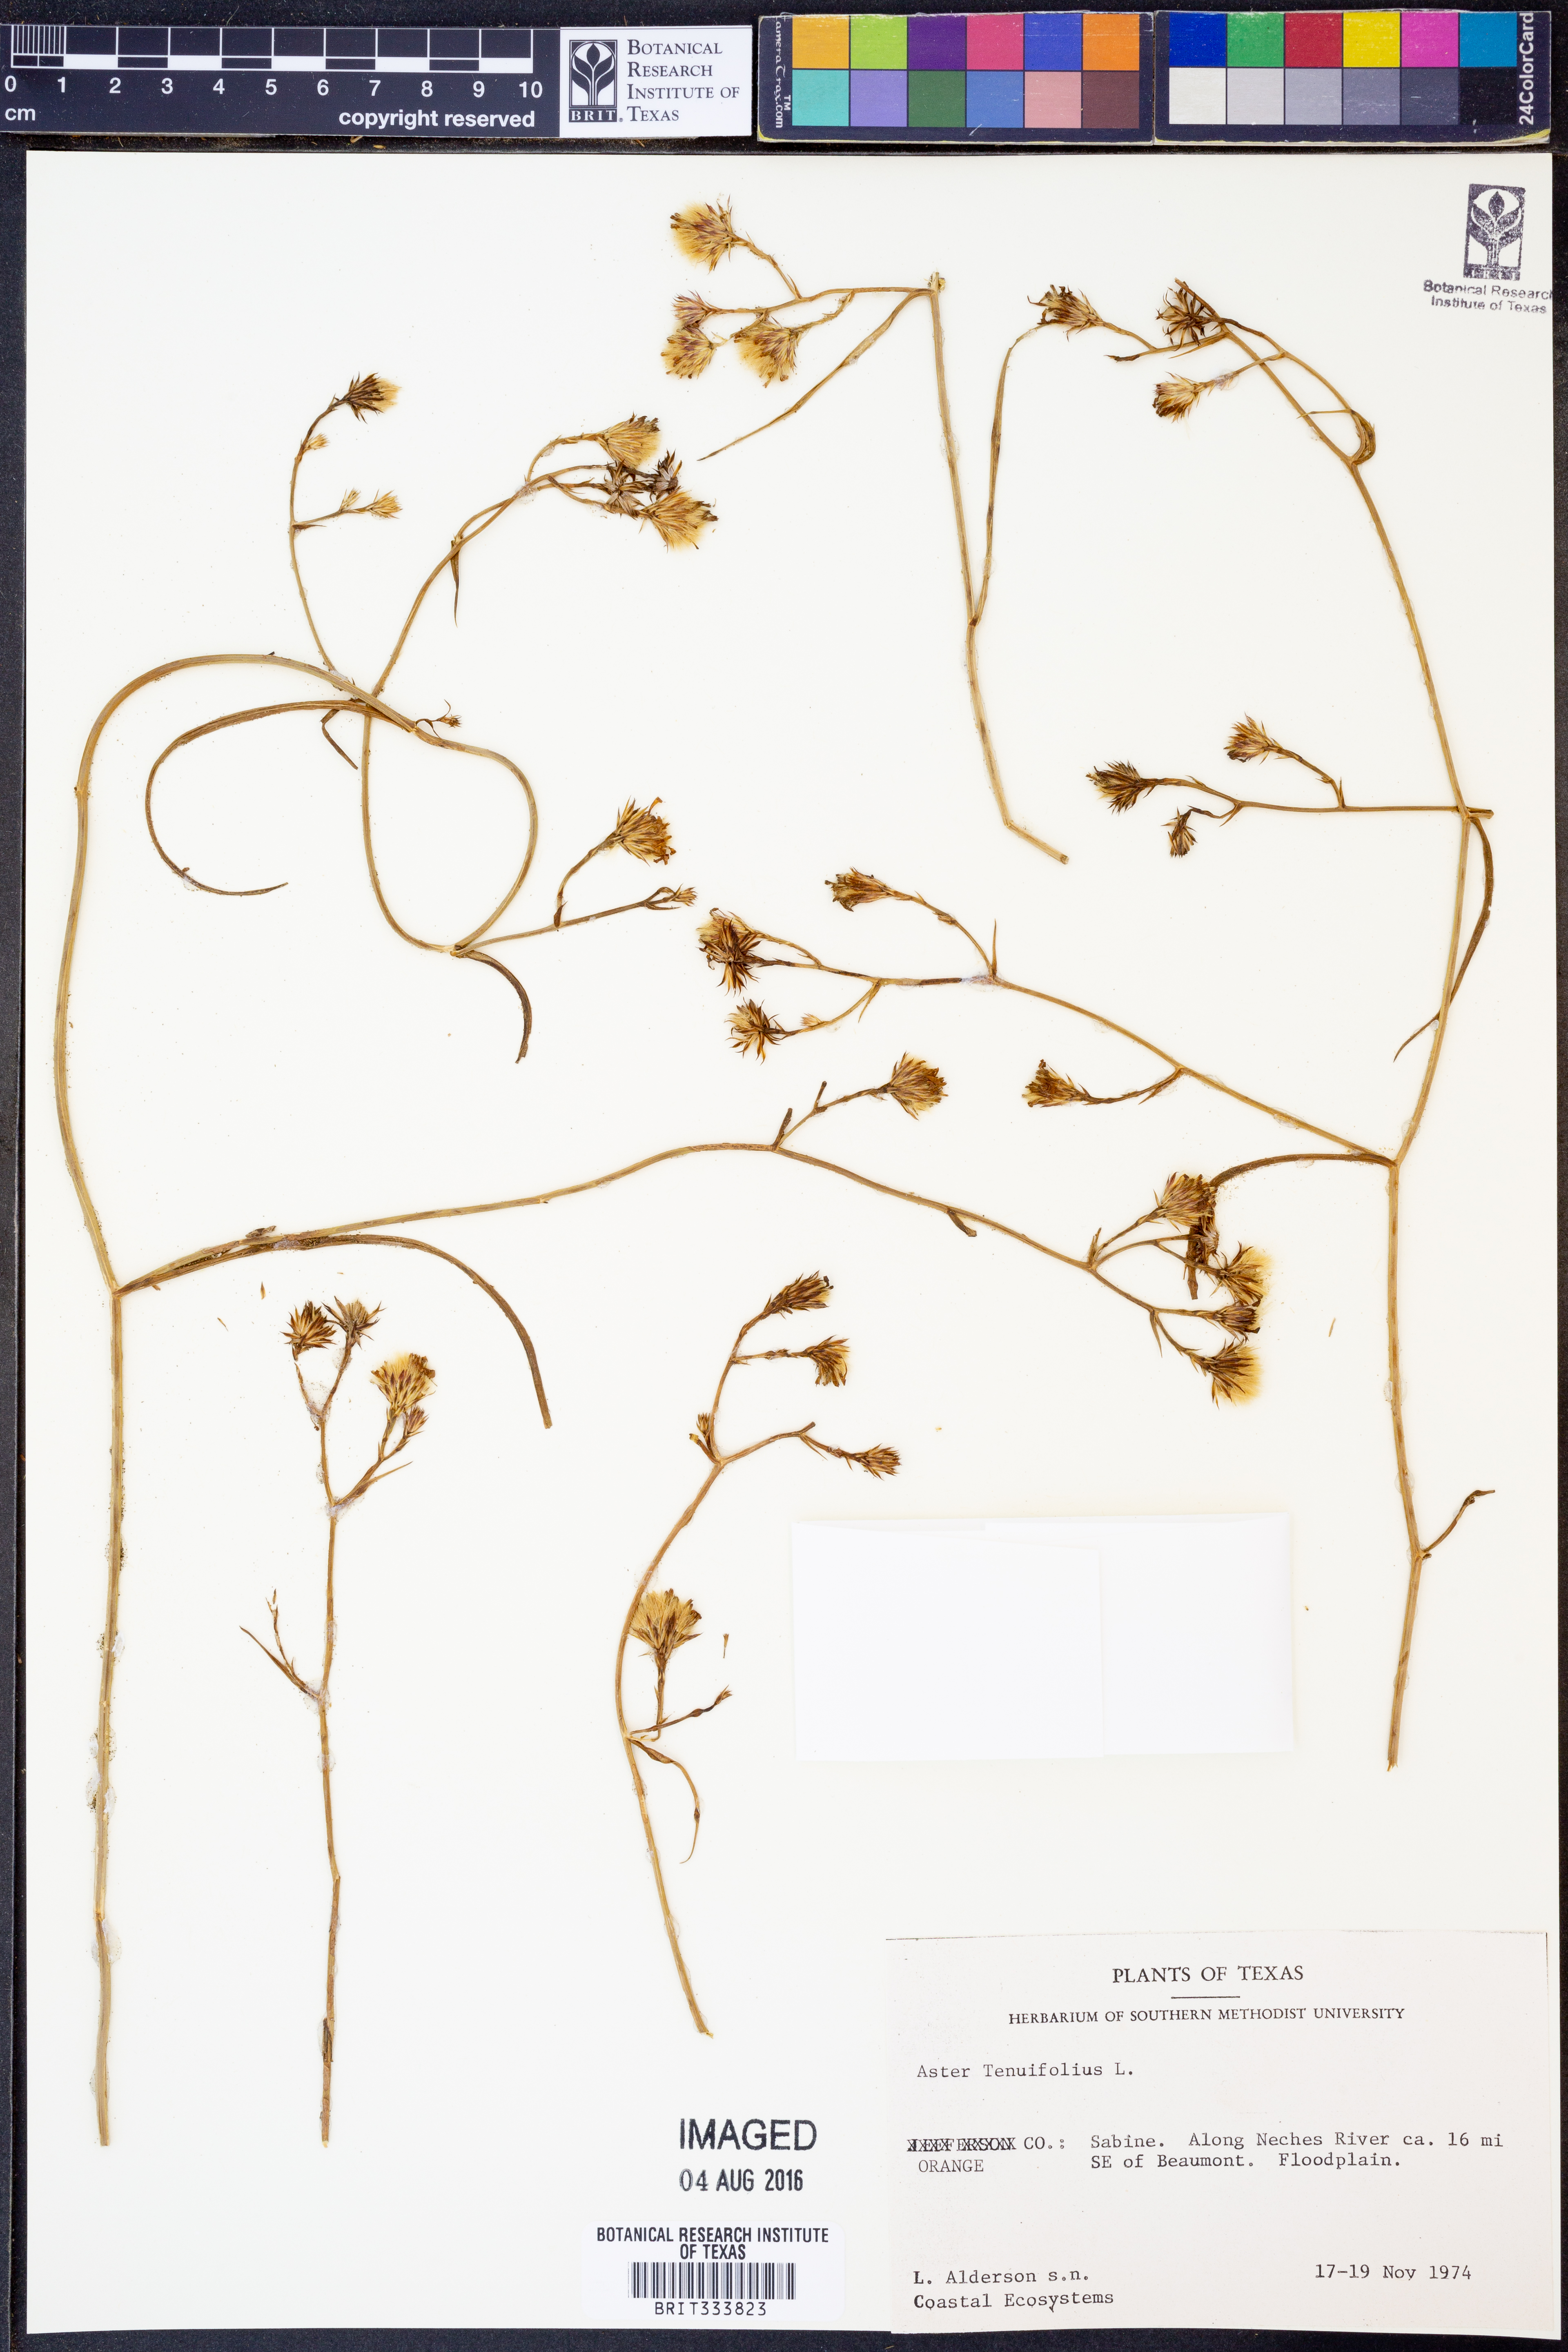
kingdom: Plantae
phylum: Tracheophyta
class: Magnoliopsida
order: Asterales
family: Asteraceae
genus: Symphyotrichum
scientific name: Symphyotrichum tenuifolium
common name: Perennial salt-marsh aster
